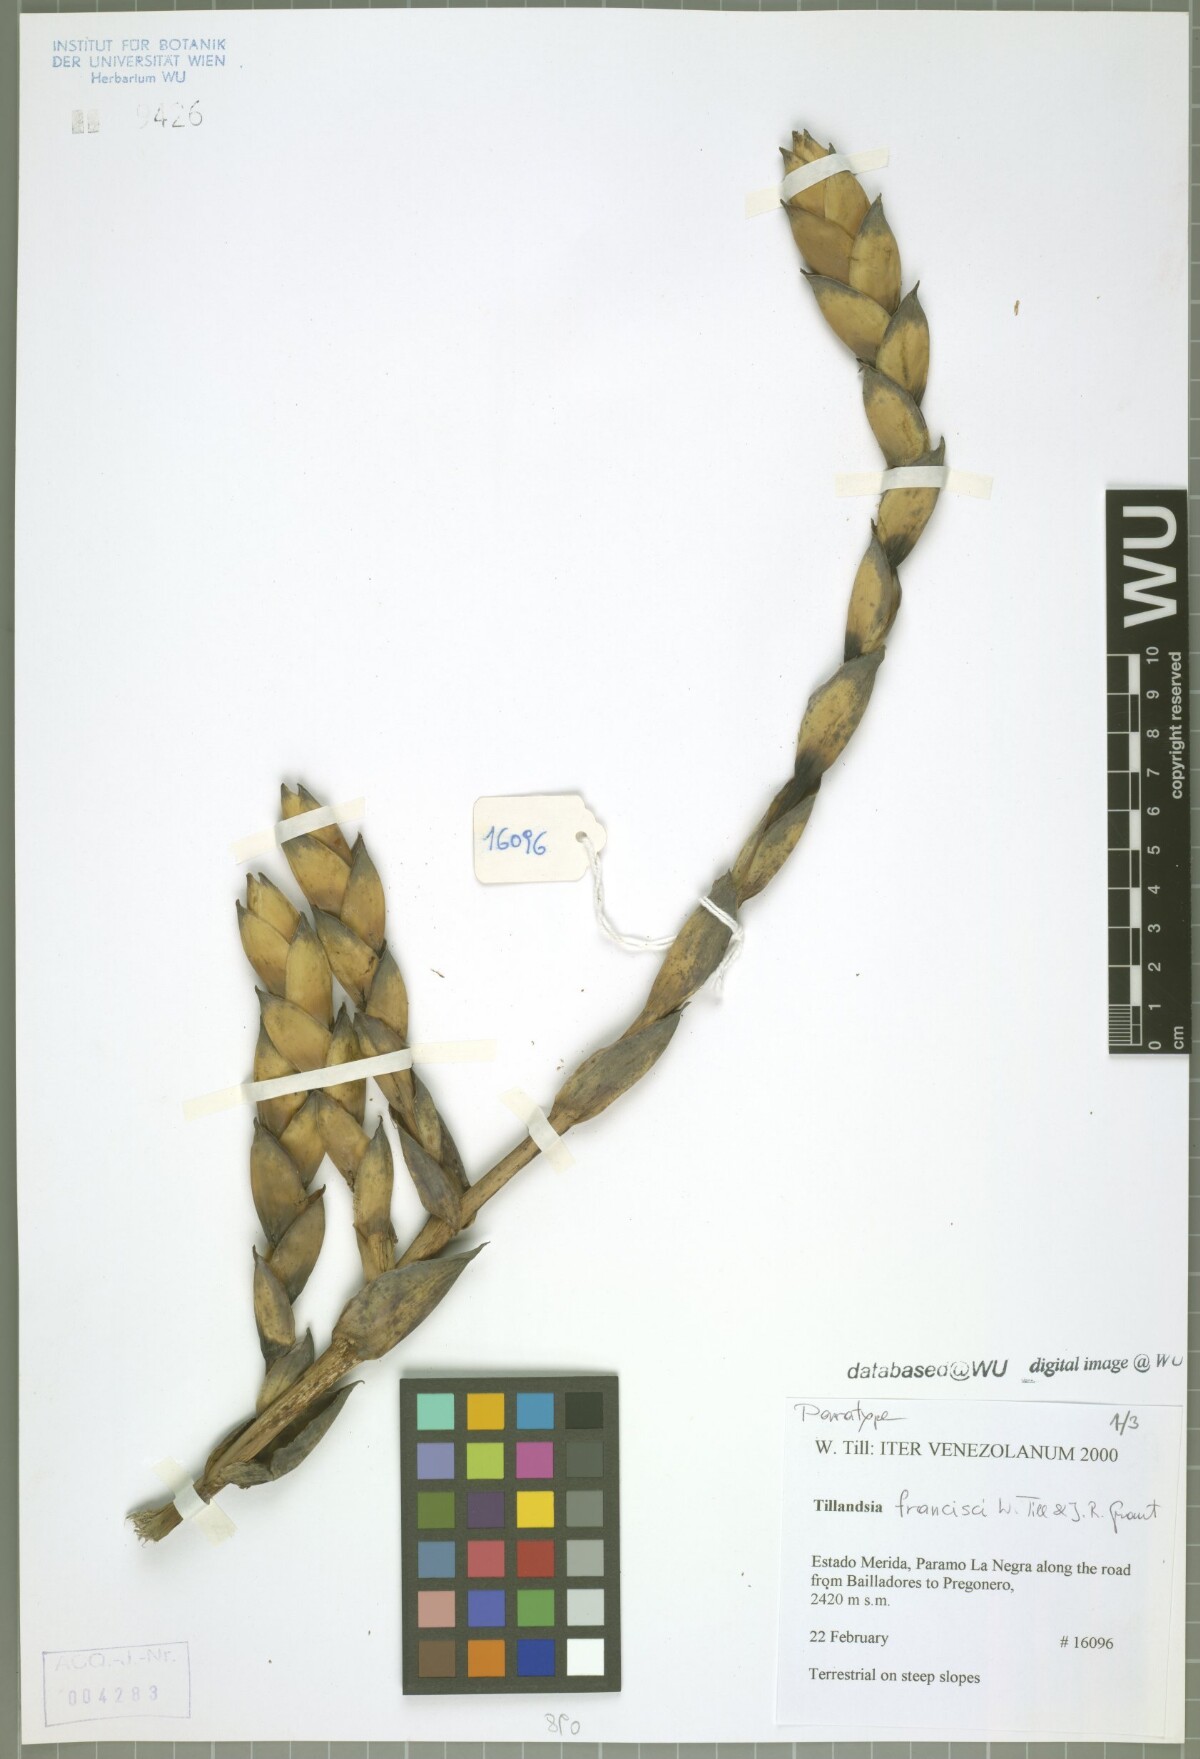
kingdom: Plantae
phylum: Tracheophyta
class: Liliopsida
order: Poales
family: Bromeliaceae
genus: Tillandsia
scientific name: Tillandsia francisci
